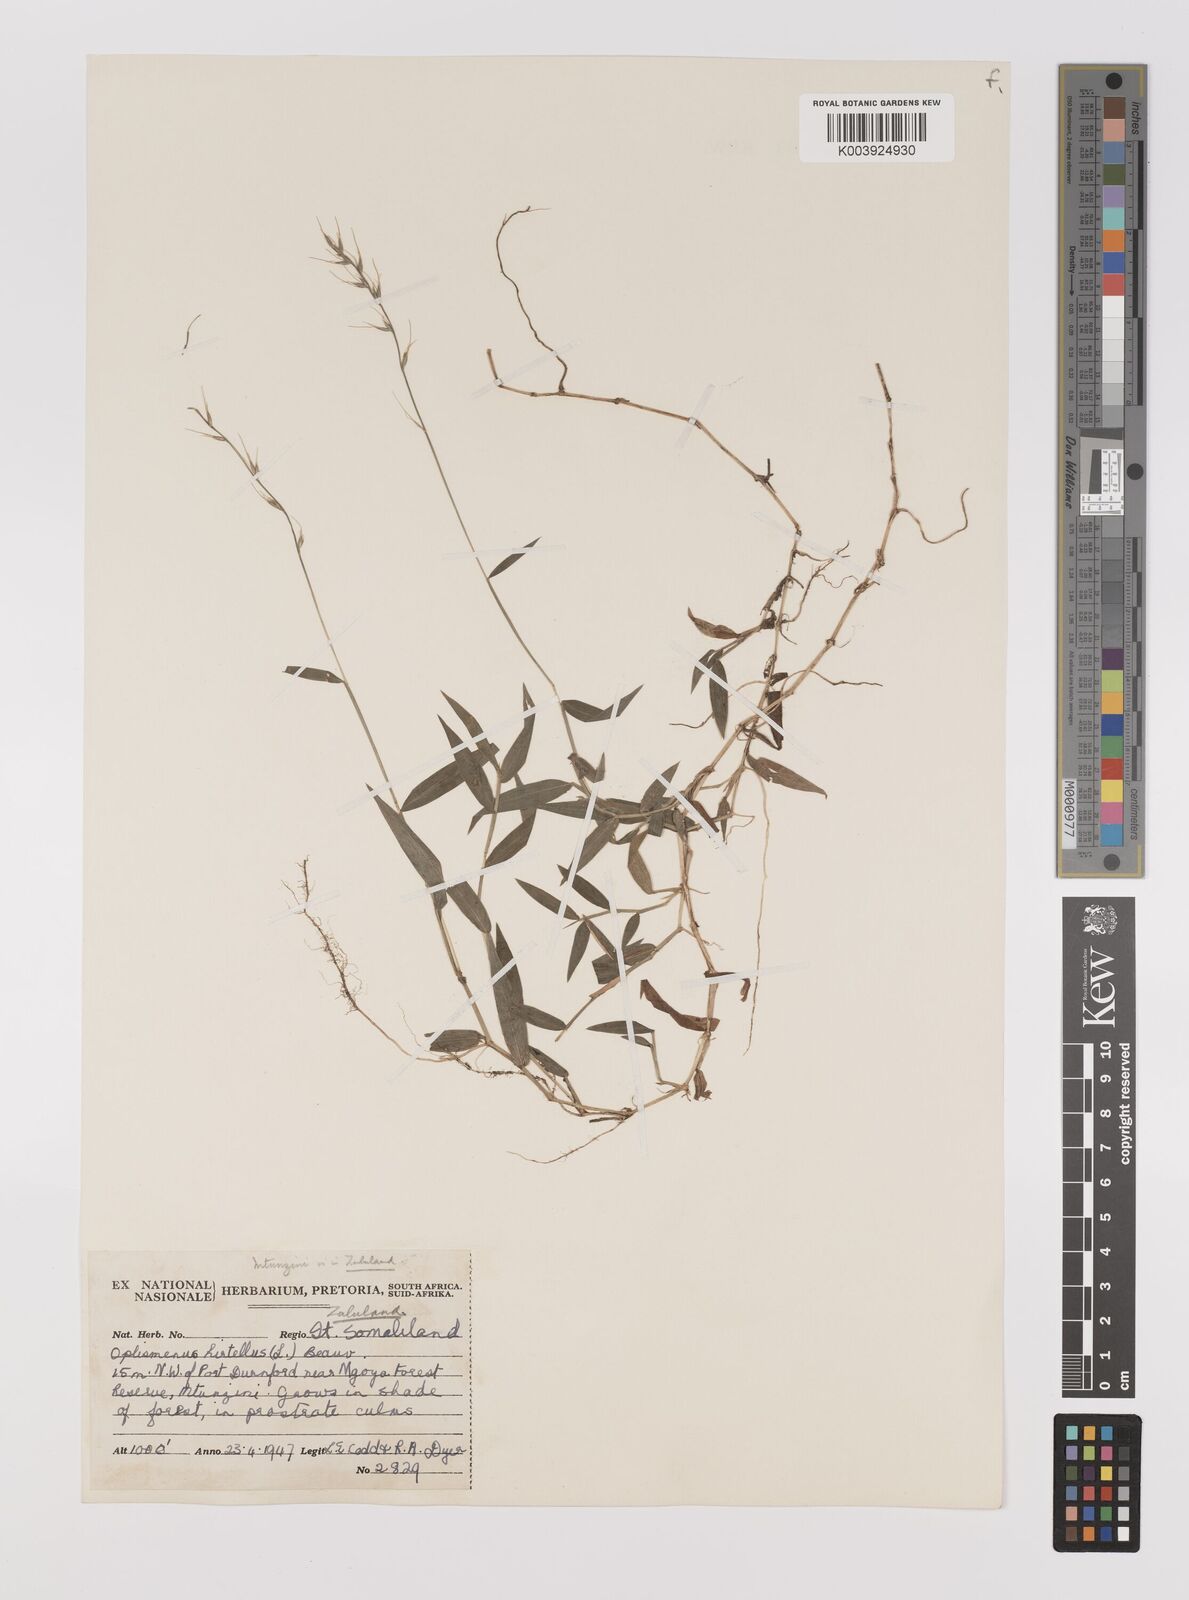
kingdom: Plantae
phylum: Tracheophyta
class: Liliopsida
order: Poales
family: Poaceae
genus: Oplismenus
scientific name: Oplismenus undulatifolius
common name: Wavyleaf basketgrass
